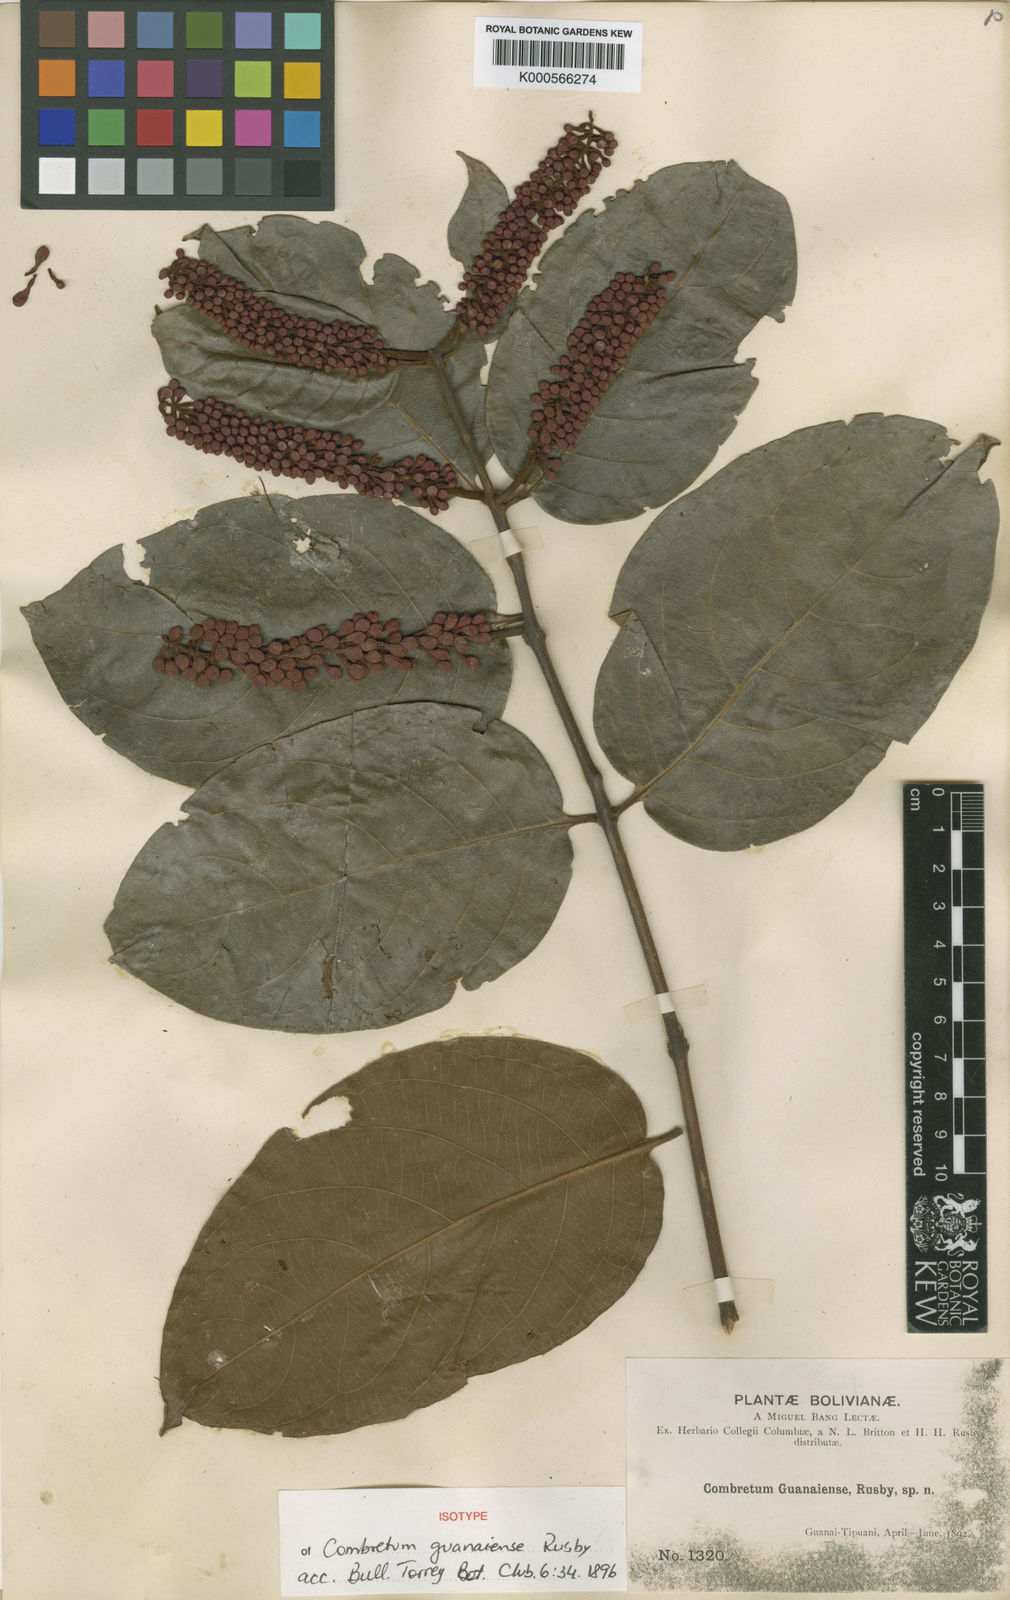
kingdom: Plantae
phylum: Tracheophyta
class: Magnoliopsida
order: Myrtales
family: Combretaceae
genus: Combretum
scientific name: Combretum assimile
